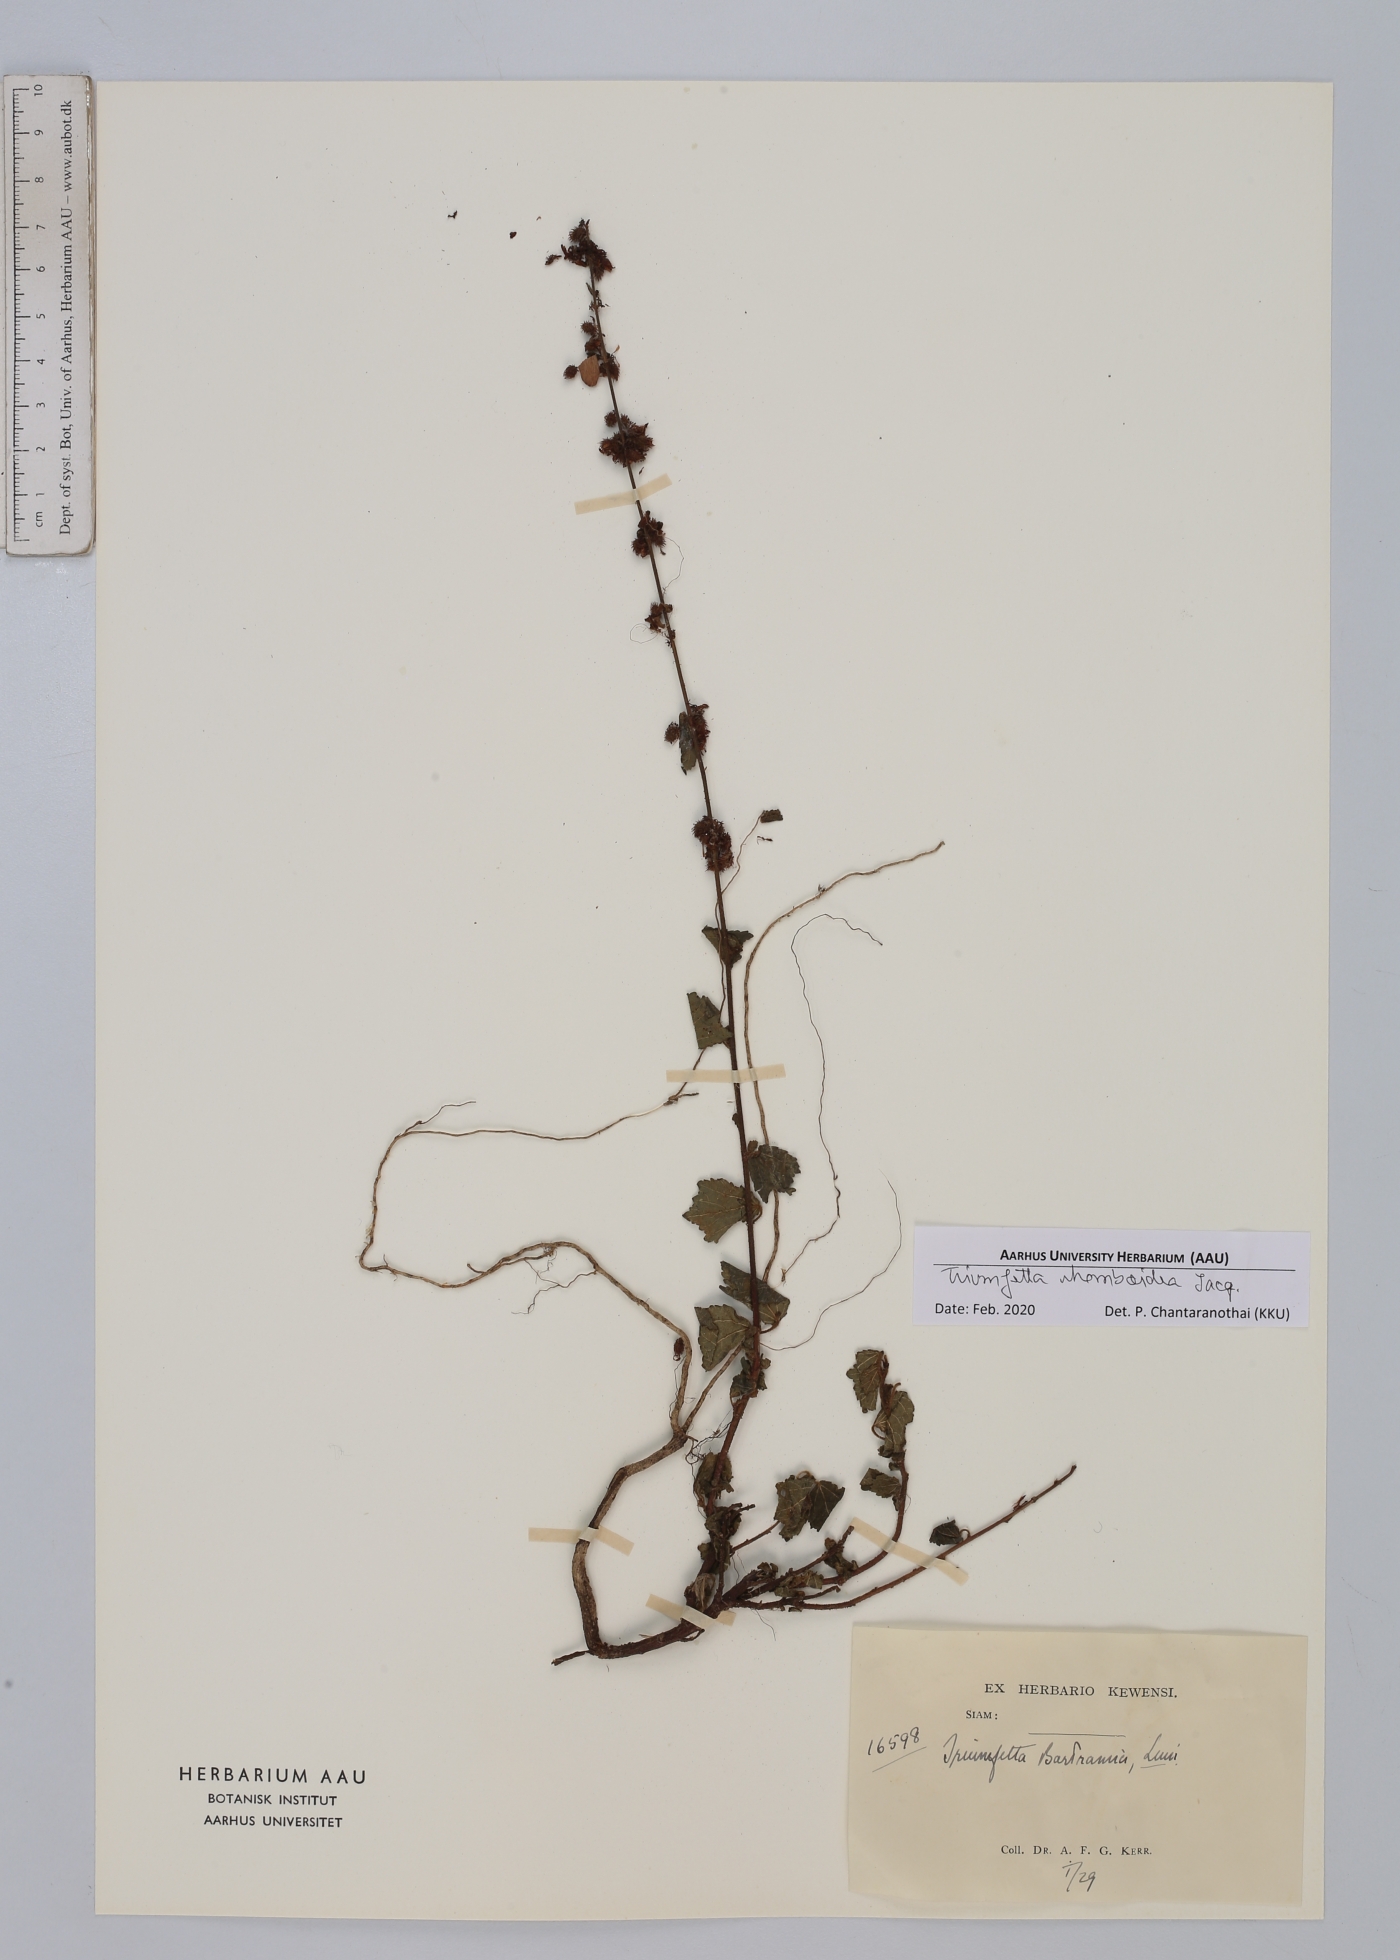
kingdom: Plantae
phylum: Tracheophyta
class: Magnoliopsida
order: Malvales
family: Malvaceae
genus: Triumfetta
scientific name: Triumfetta rhomboidea
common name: Diamond burbark
